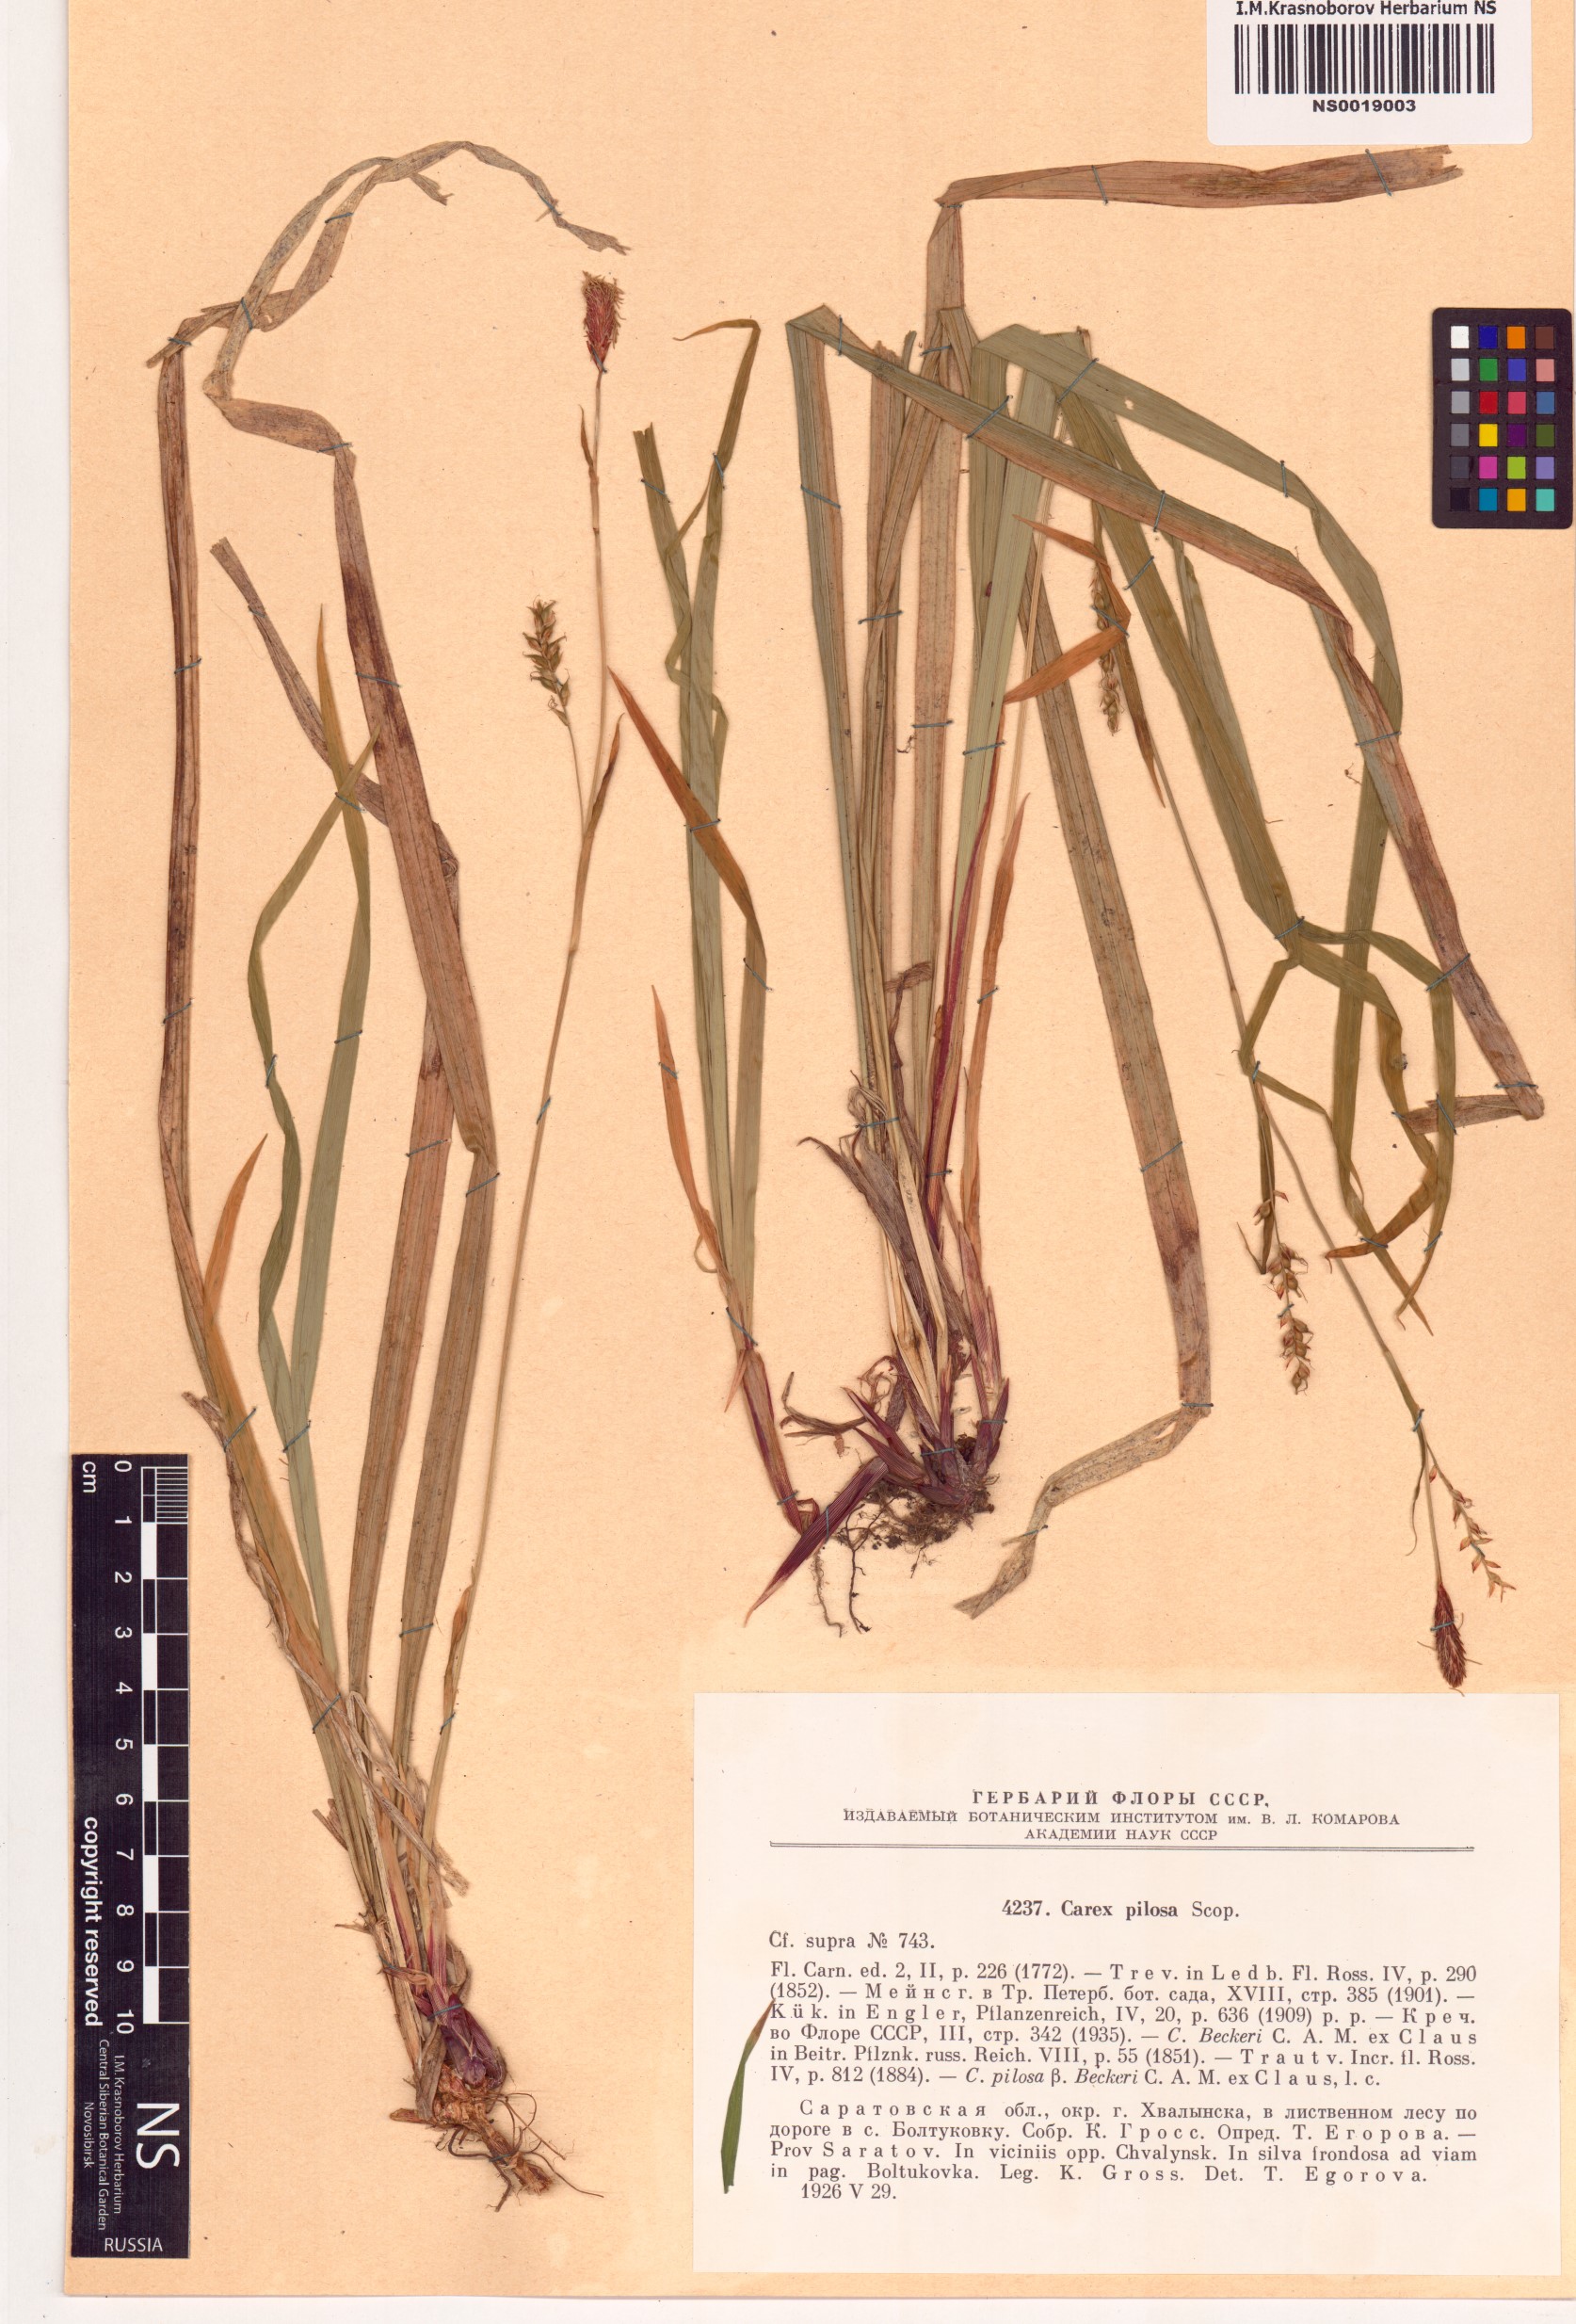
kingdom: Plantae
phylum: Tracheophyta
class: Liliopsida
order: Poales
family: Cyperaceae
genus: Carex
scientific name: Carex pilosa
